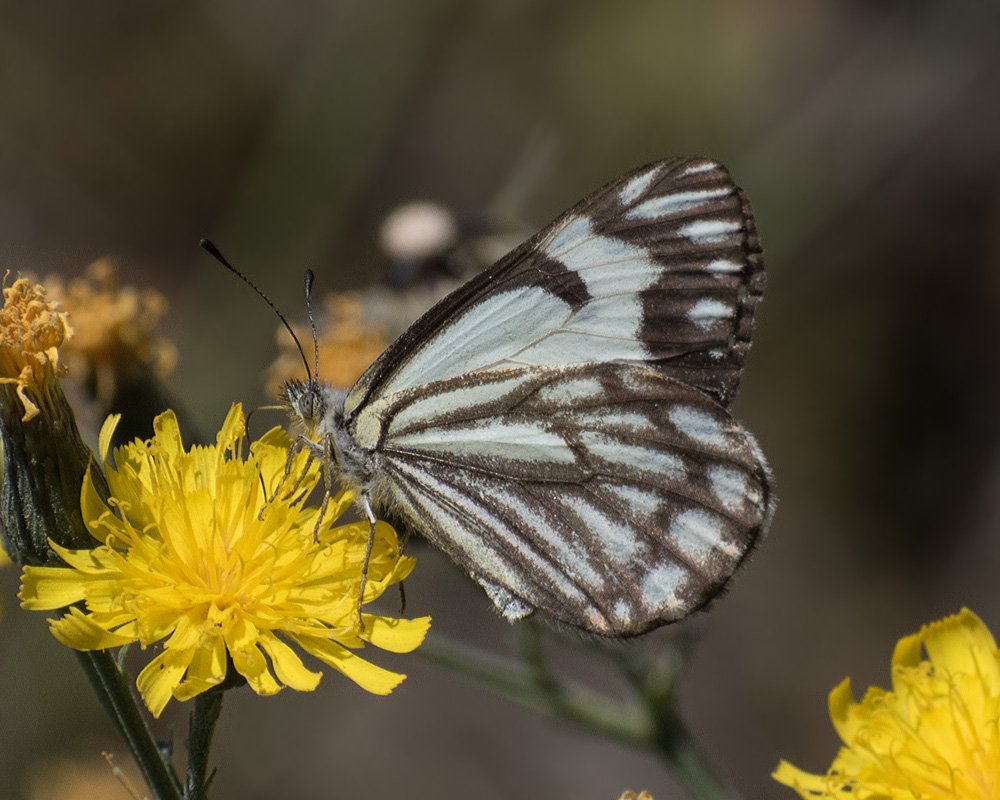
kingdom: Animalia
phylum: Arthropoda
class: Insecta
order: Lepidoptera
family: Pieridae
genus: Neophasia
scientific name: Neophasia menapia
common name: Pine White
